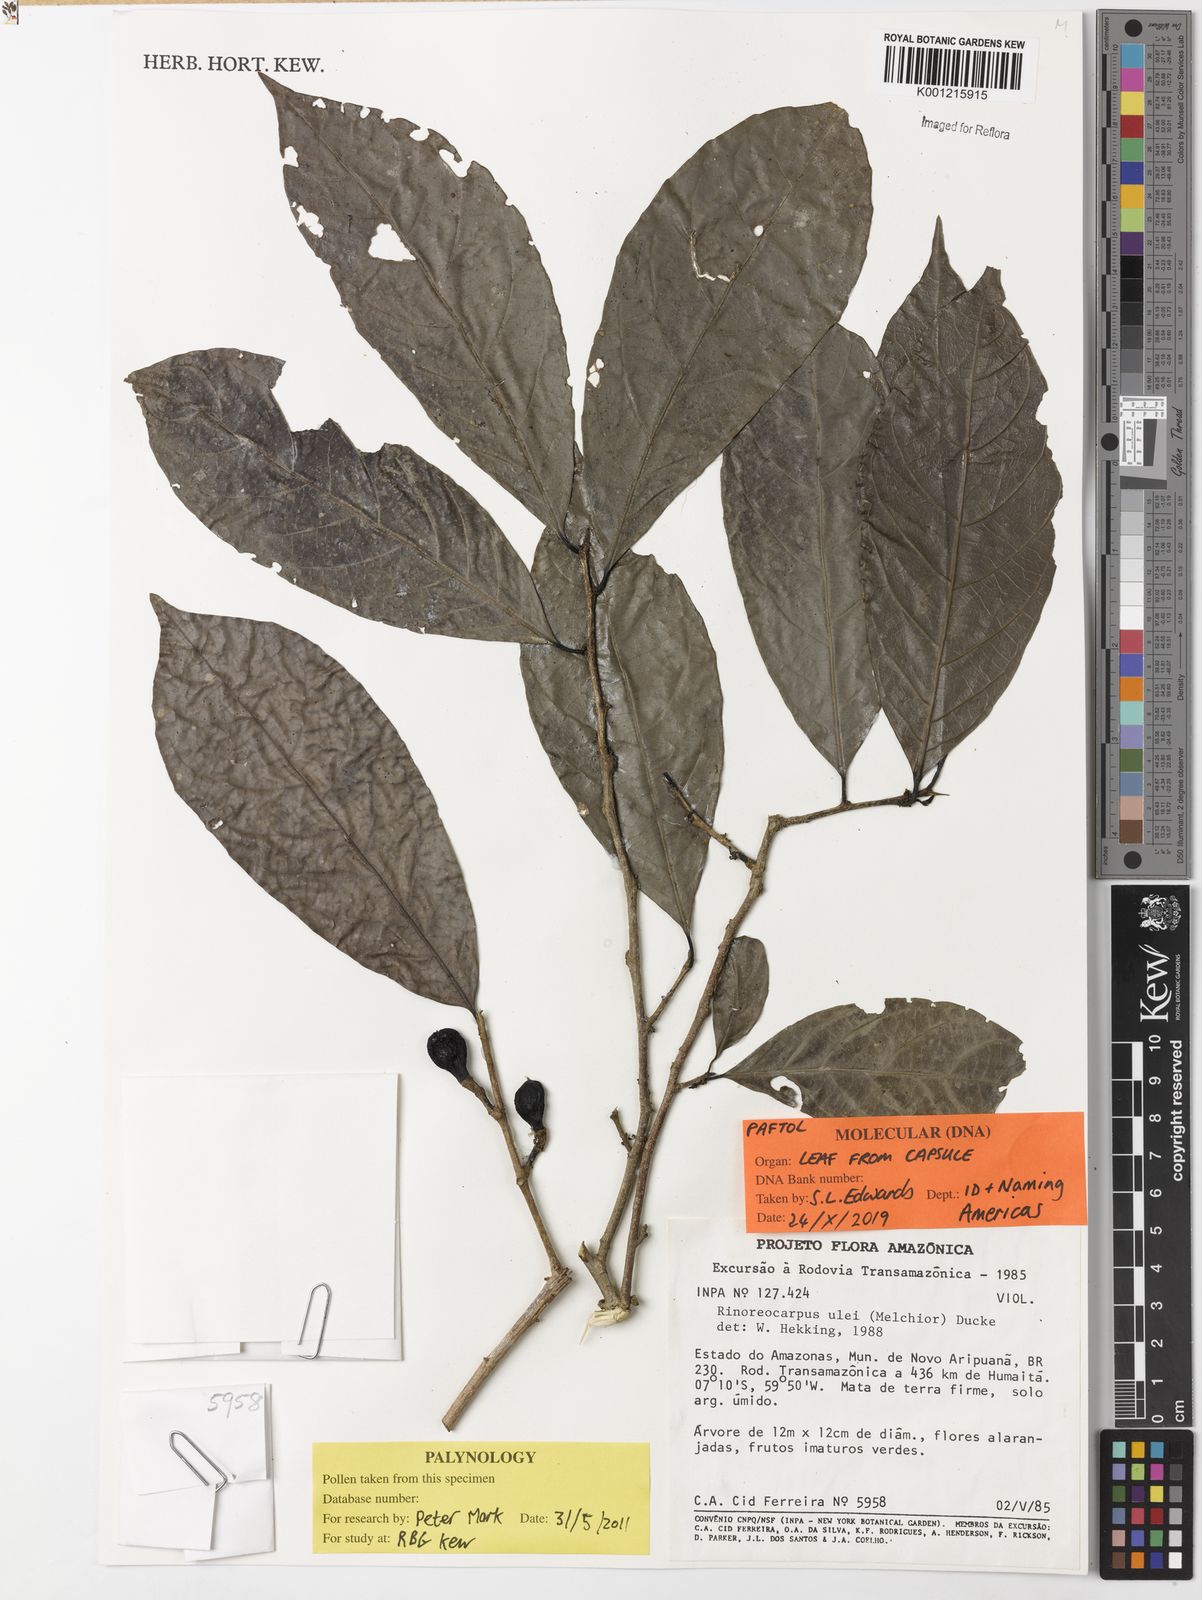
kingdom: Plantae
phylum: Tracheophyta
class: Magnoliopsida
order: Malpighiales
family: Violaceae
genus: Rinorea
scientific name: Rinorea
